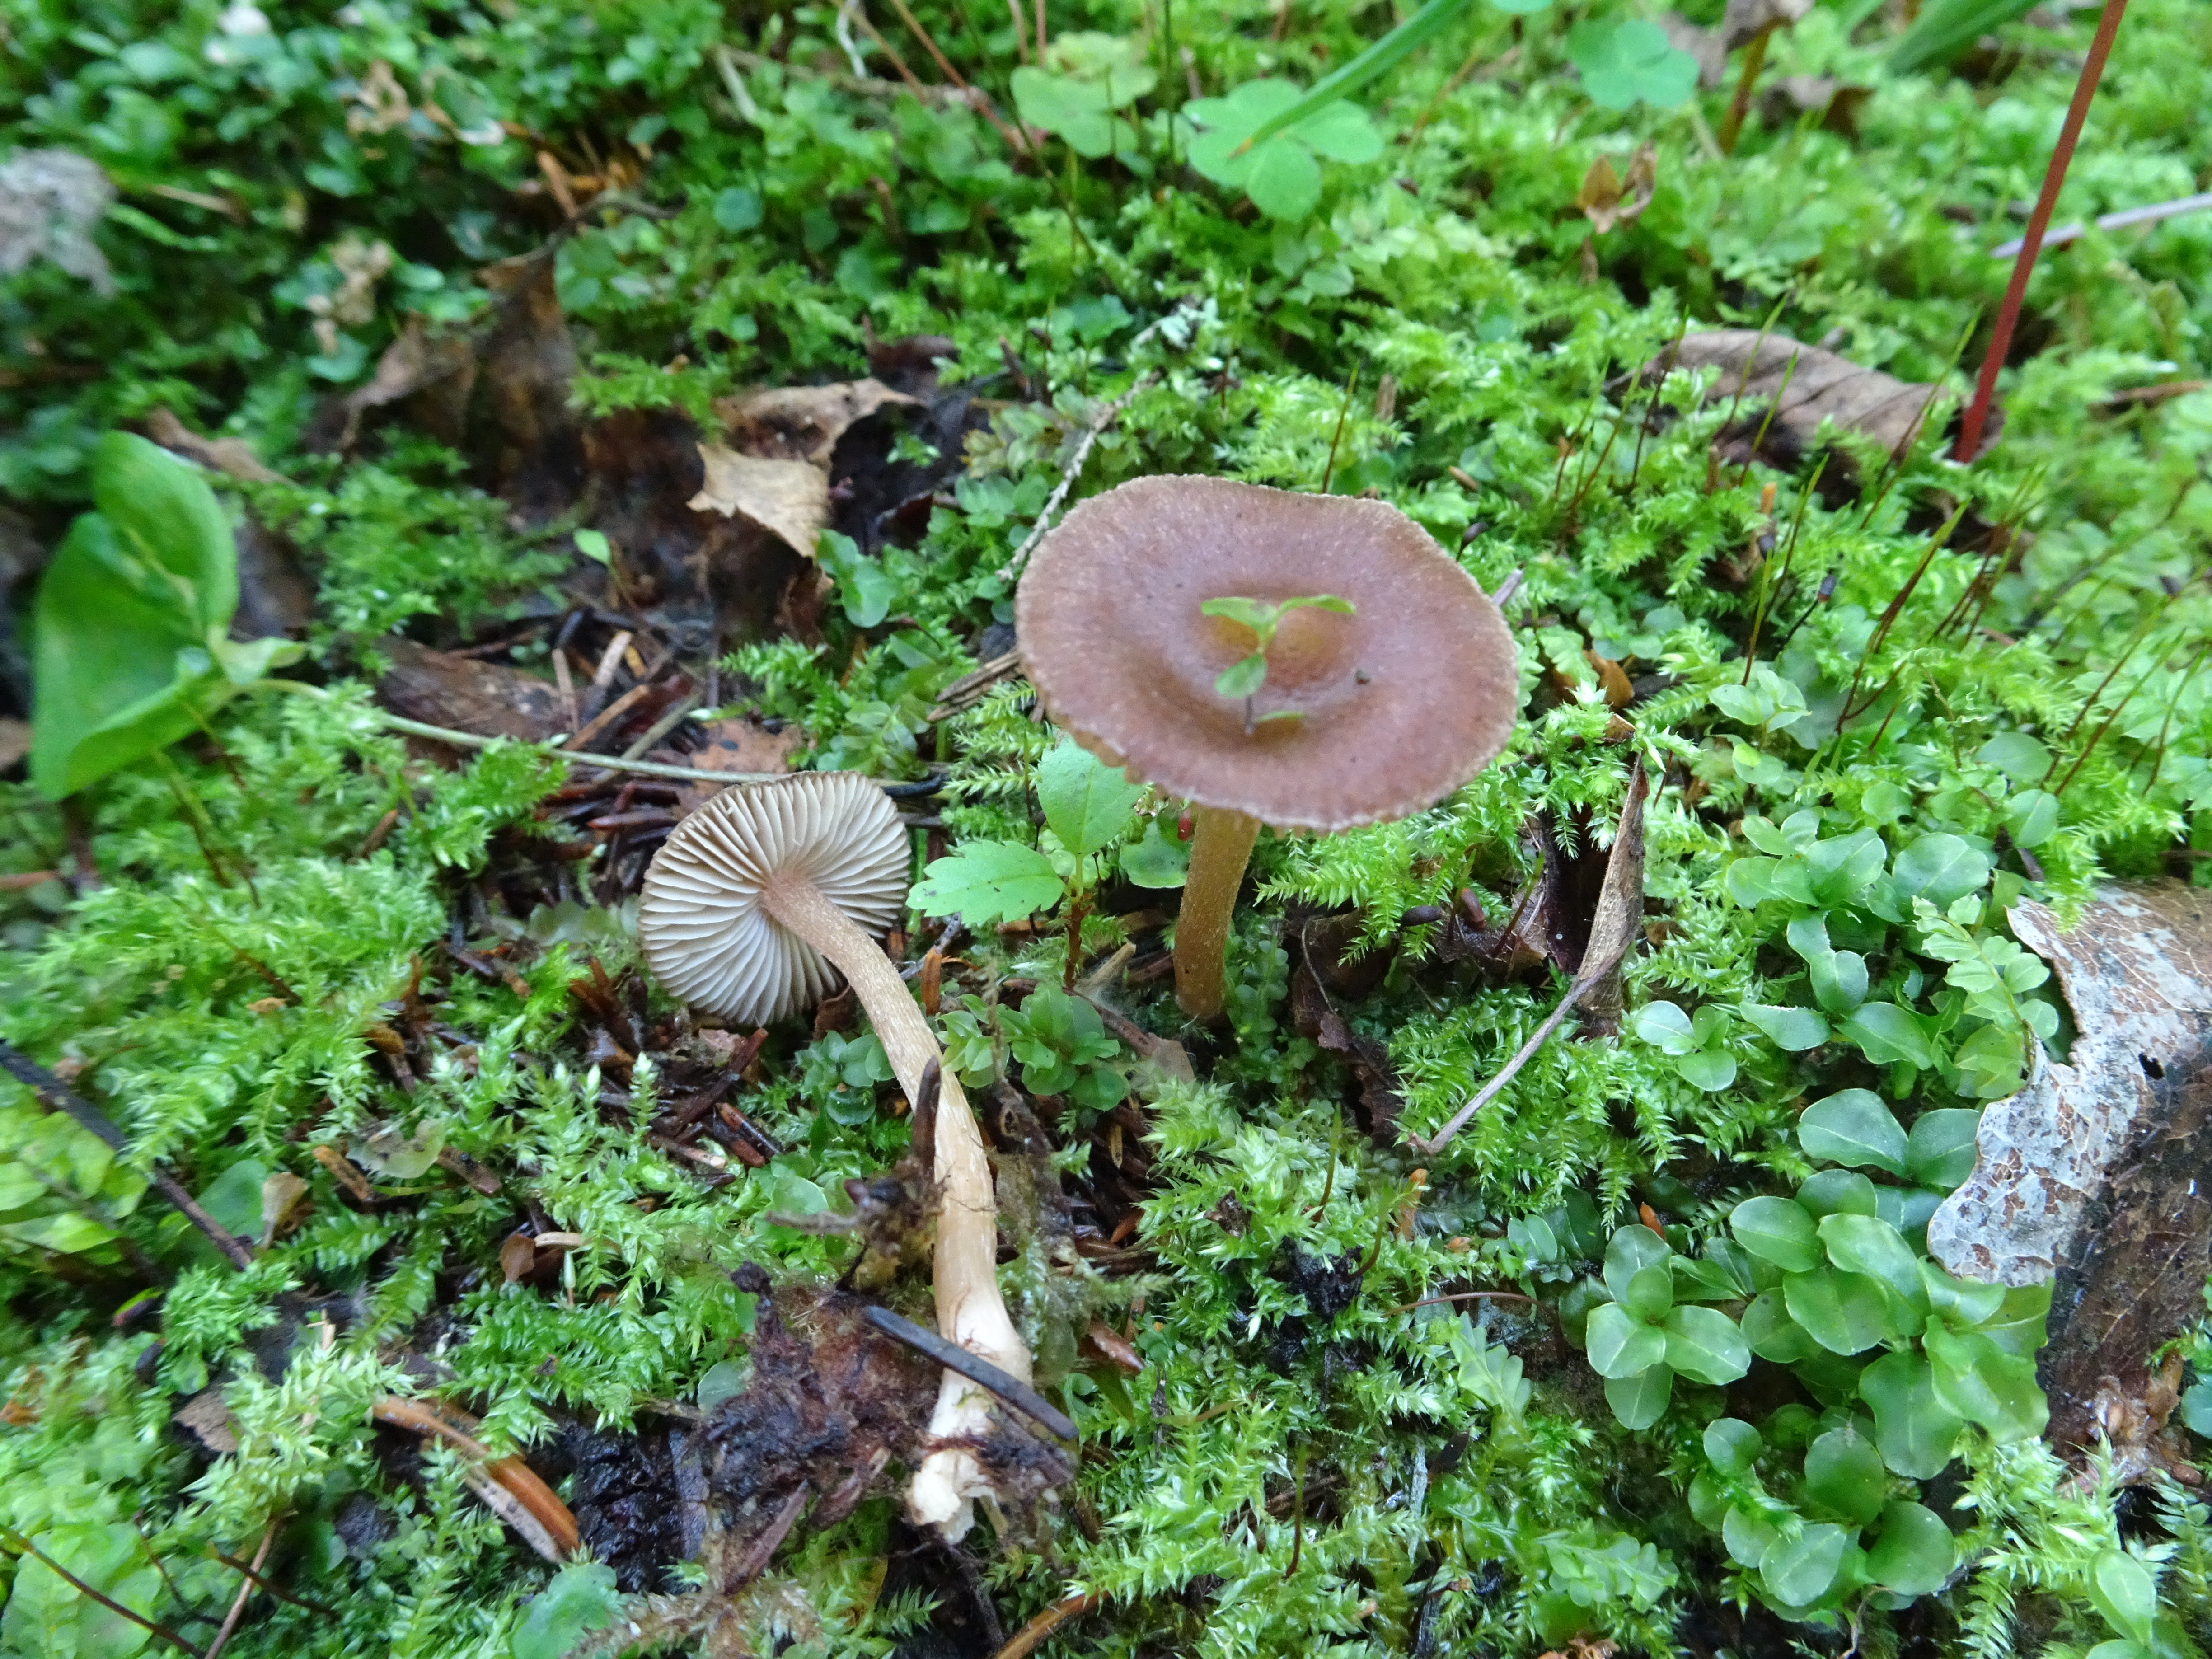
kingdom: Fungi
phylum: Basidiomycota
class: Agaricomycetes
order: Agaricales
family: Inocybaceae
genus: Inocybe
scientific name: Inocybe
